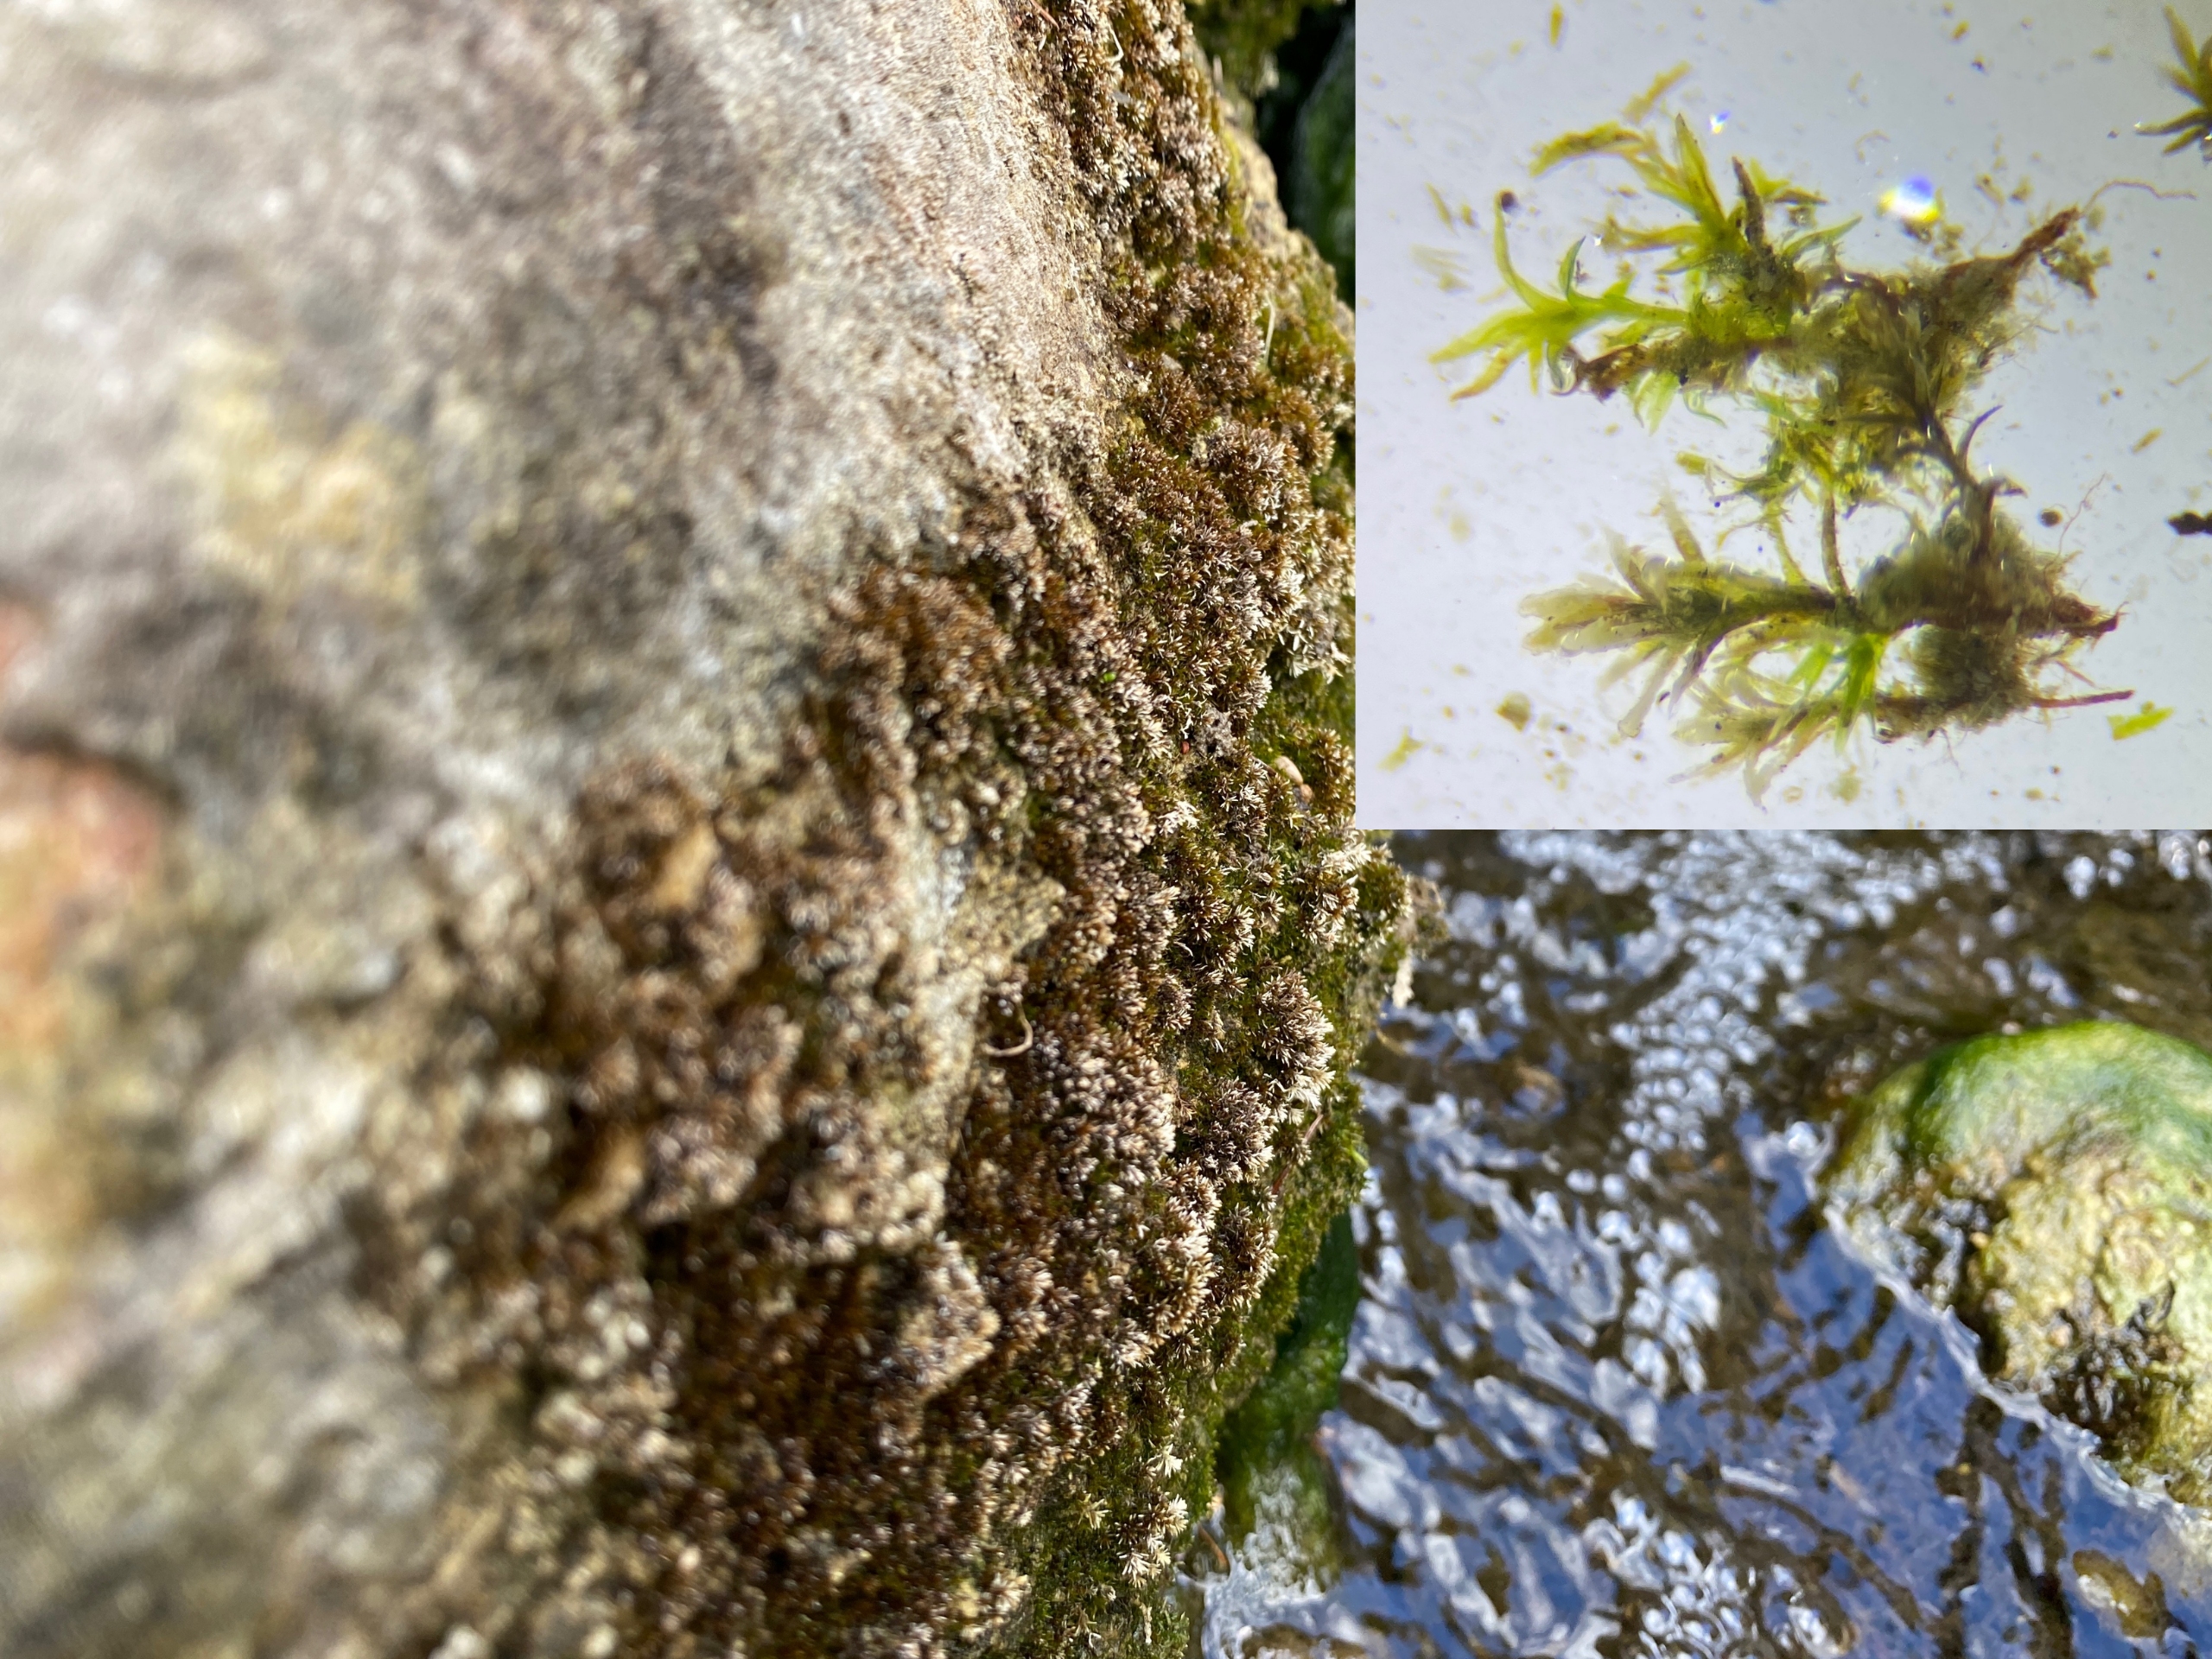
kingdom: Plantae
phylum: Bryophyta
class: Bryopsida
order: Pottiales
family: Pottiaceae
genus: Geheebia
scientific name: Geheebia tophacea
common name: Papilløs kalktuemos
